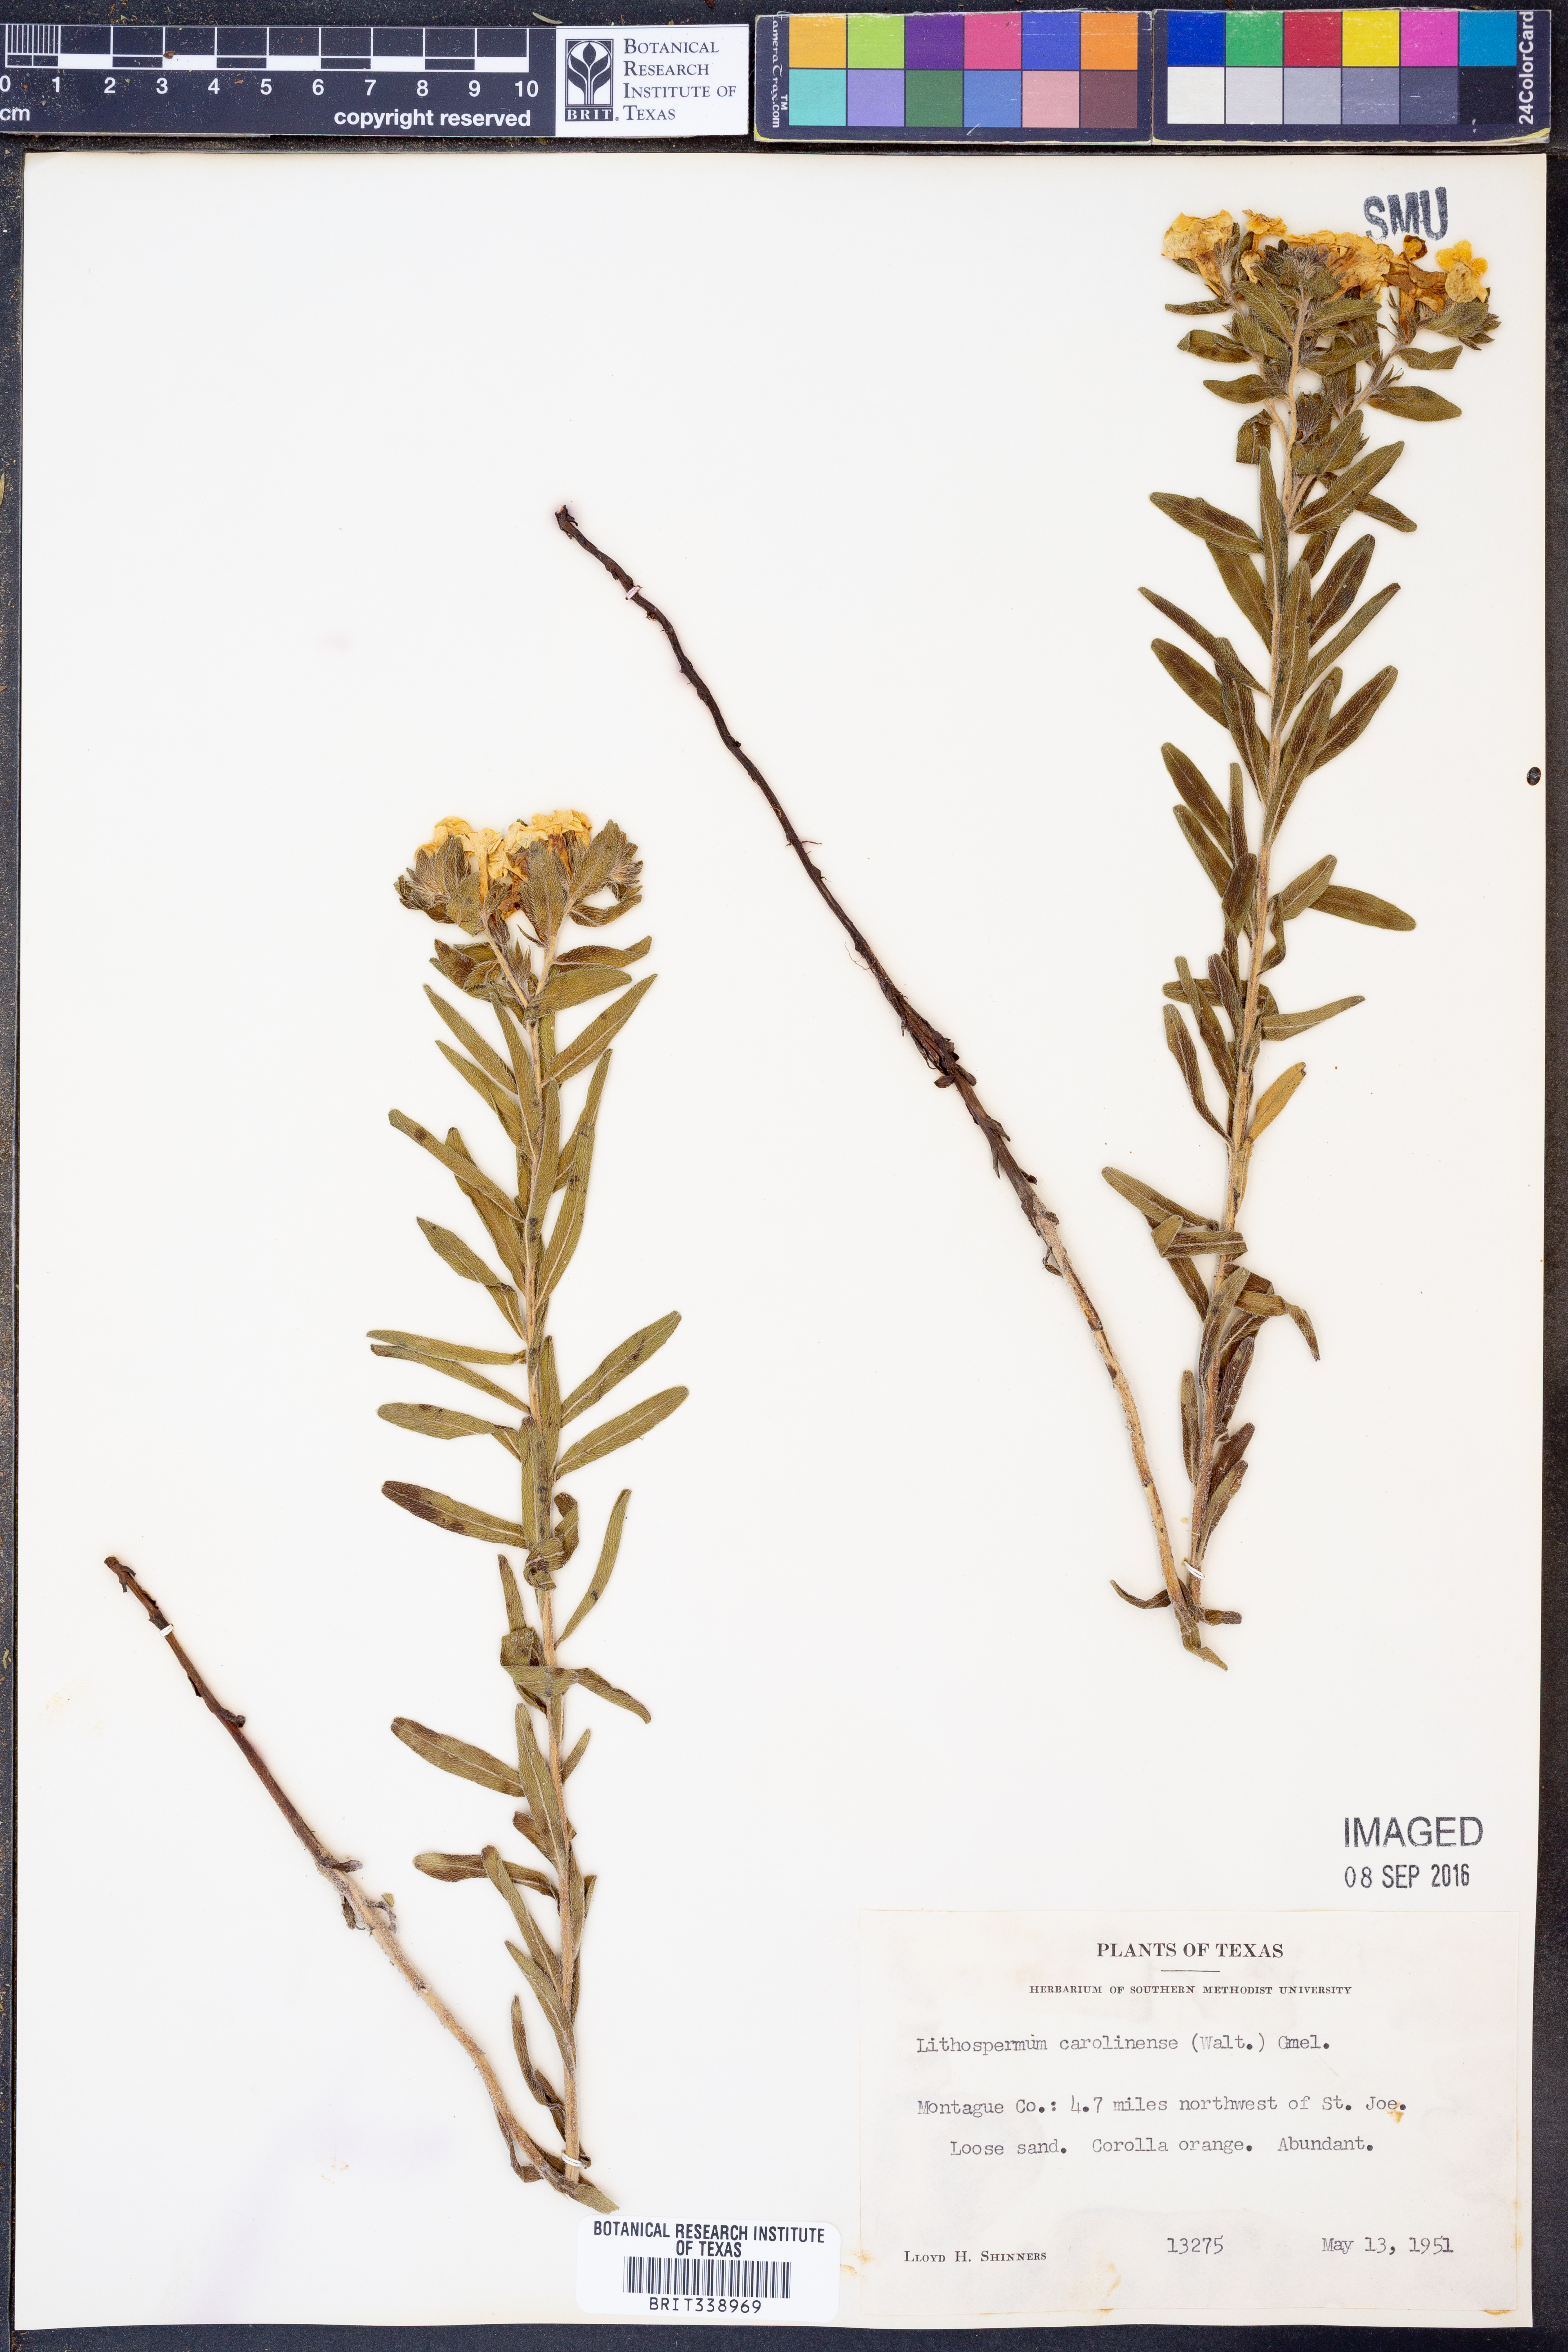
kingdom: Plantae
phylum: Tracheophyta
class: Magnoliopsida
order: Boraginales
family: Boraginaceae
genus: Lithospermum
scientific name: Lithospermum caroliniense
